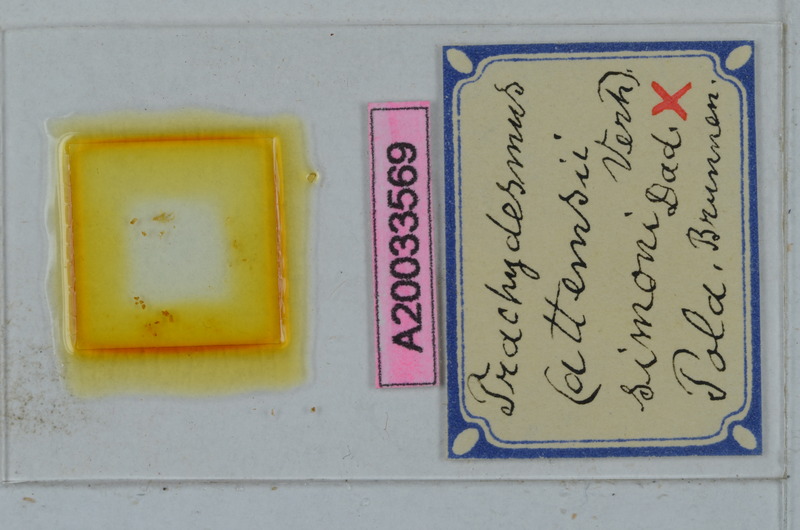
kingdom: Animalia
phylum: Arthropoda
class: Diplopoda
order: Polydesmida
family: Paradoxosomatidae
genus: Stosatea
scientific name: Stosatea simonii
